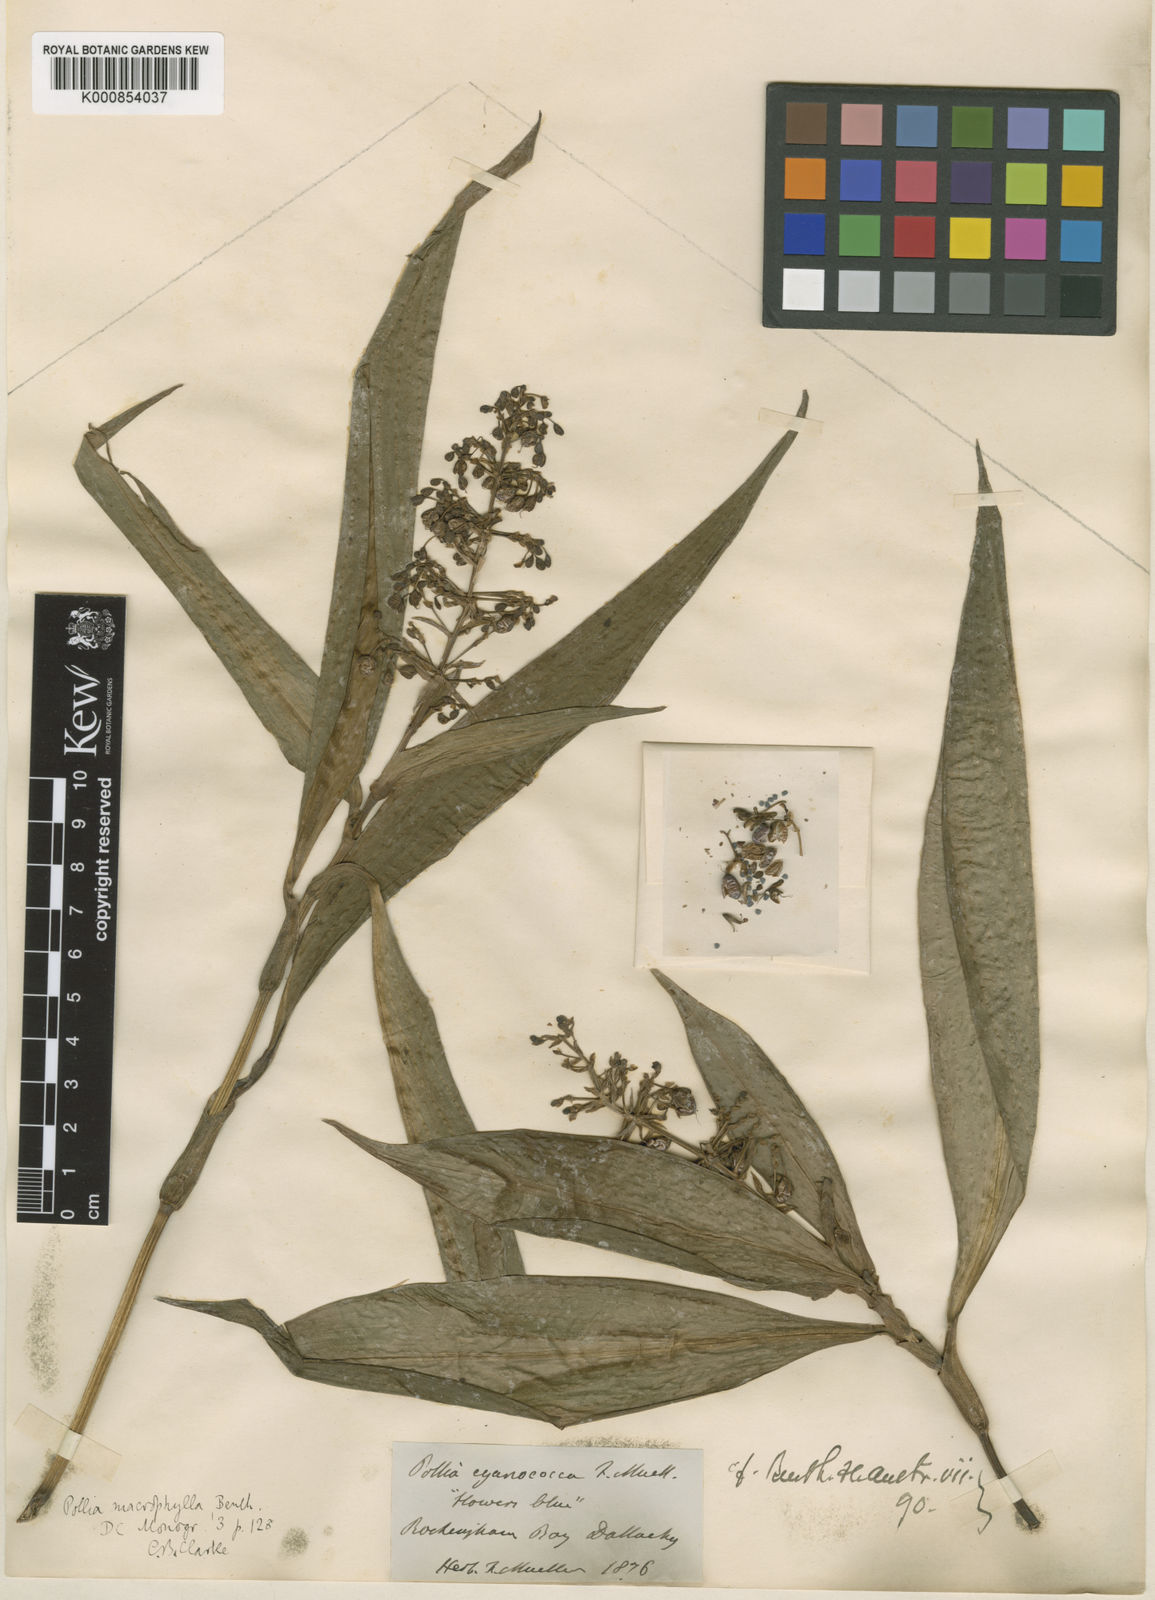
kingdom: Plantae
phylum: Tracheophyta
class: Liliopsida
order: Commelinales
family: Commelinaceae
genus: Pollia
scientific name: Pollia macrophylla
